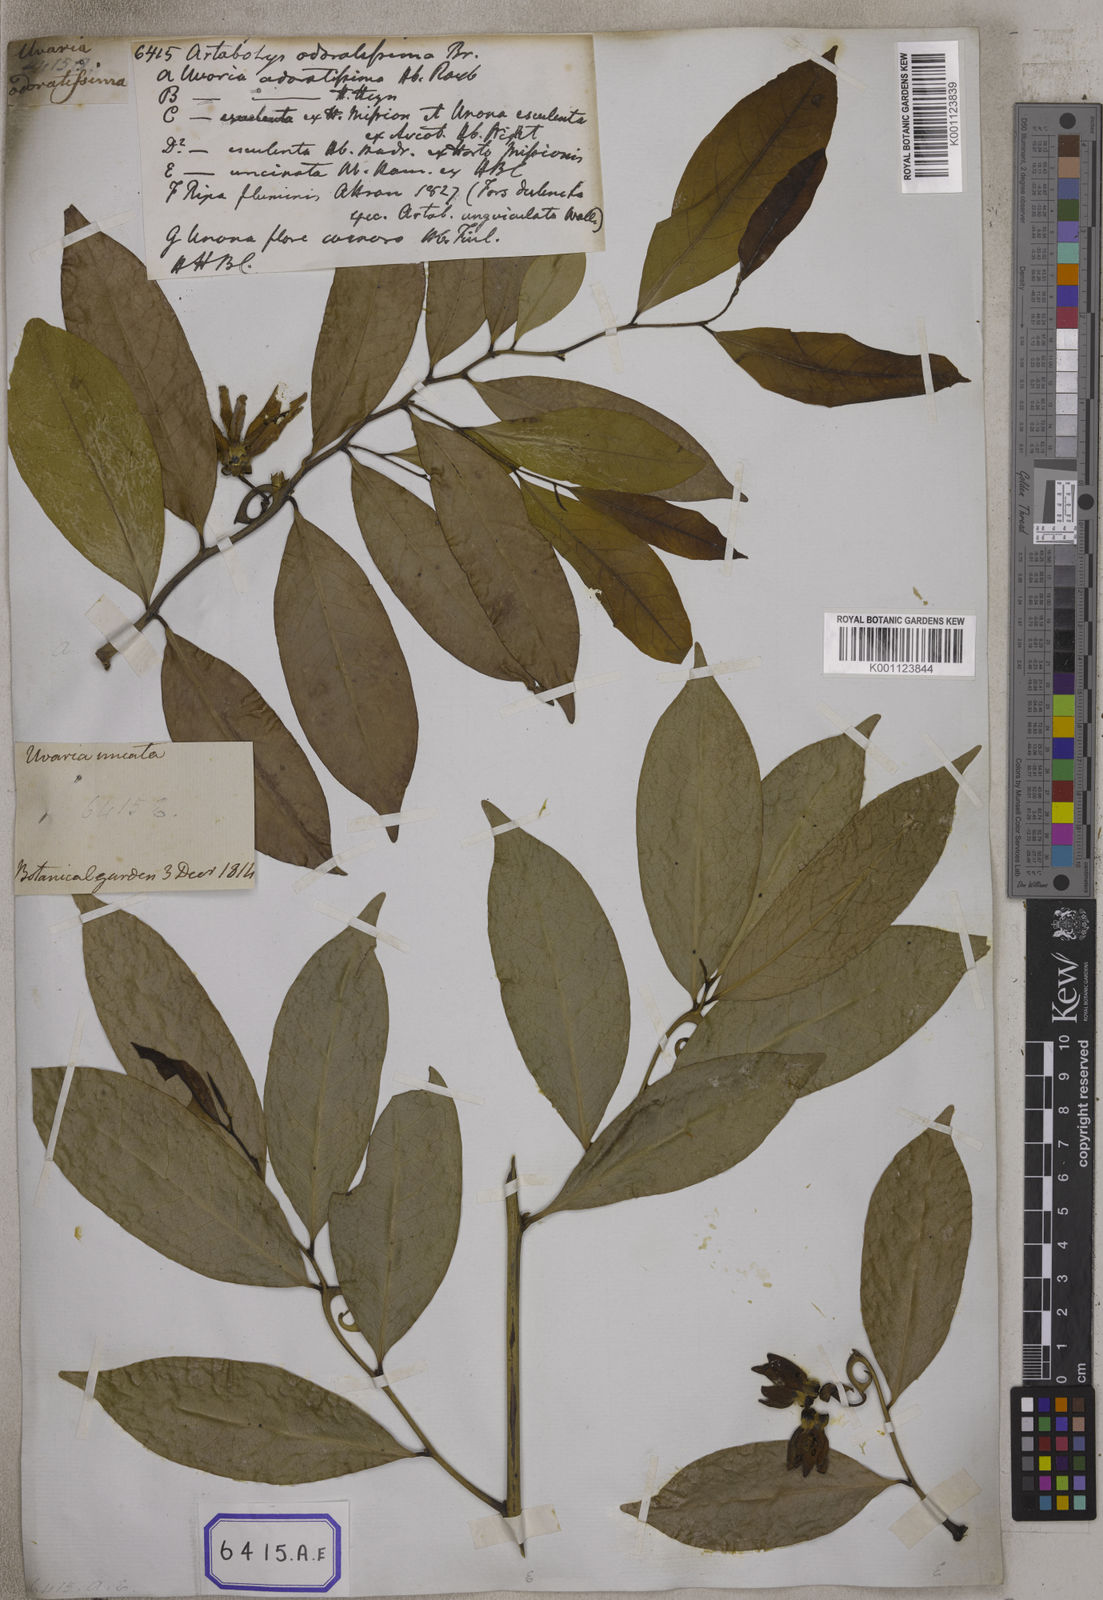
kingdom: Plantae
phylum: Tracheophyta
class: Magnoliopsida
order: Magnoliales
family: Annonaceae
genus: Artabotrys
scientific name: Artabotrys hexapetalus
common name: Climbing ilang-ilang
